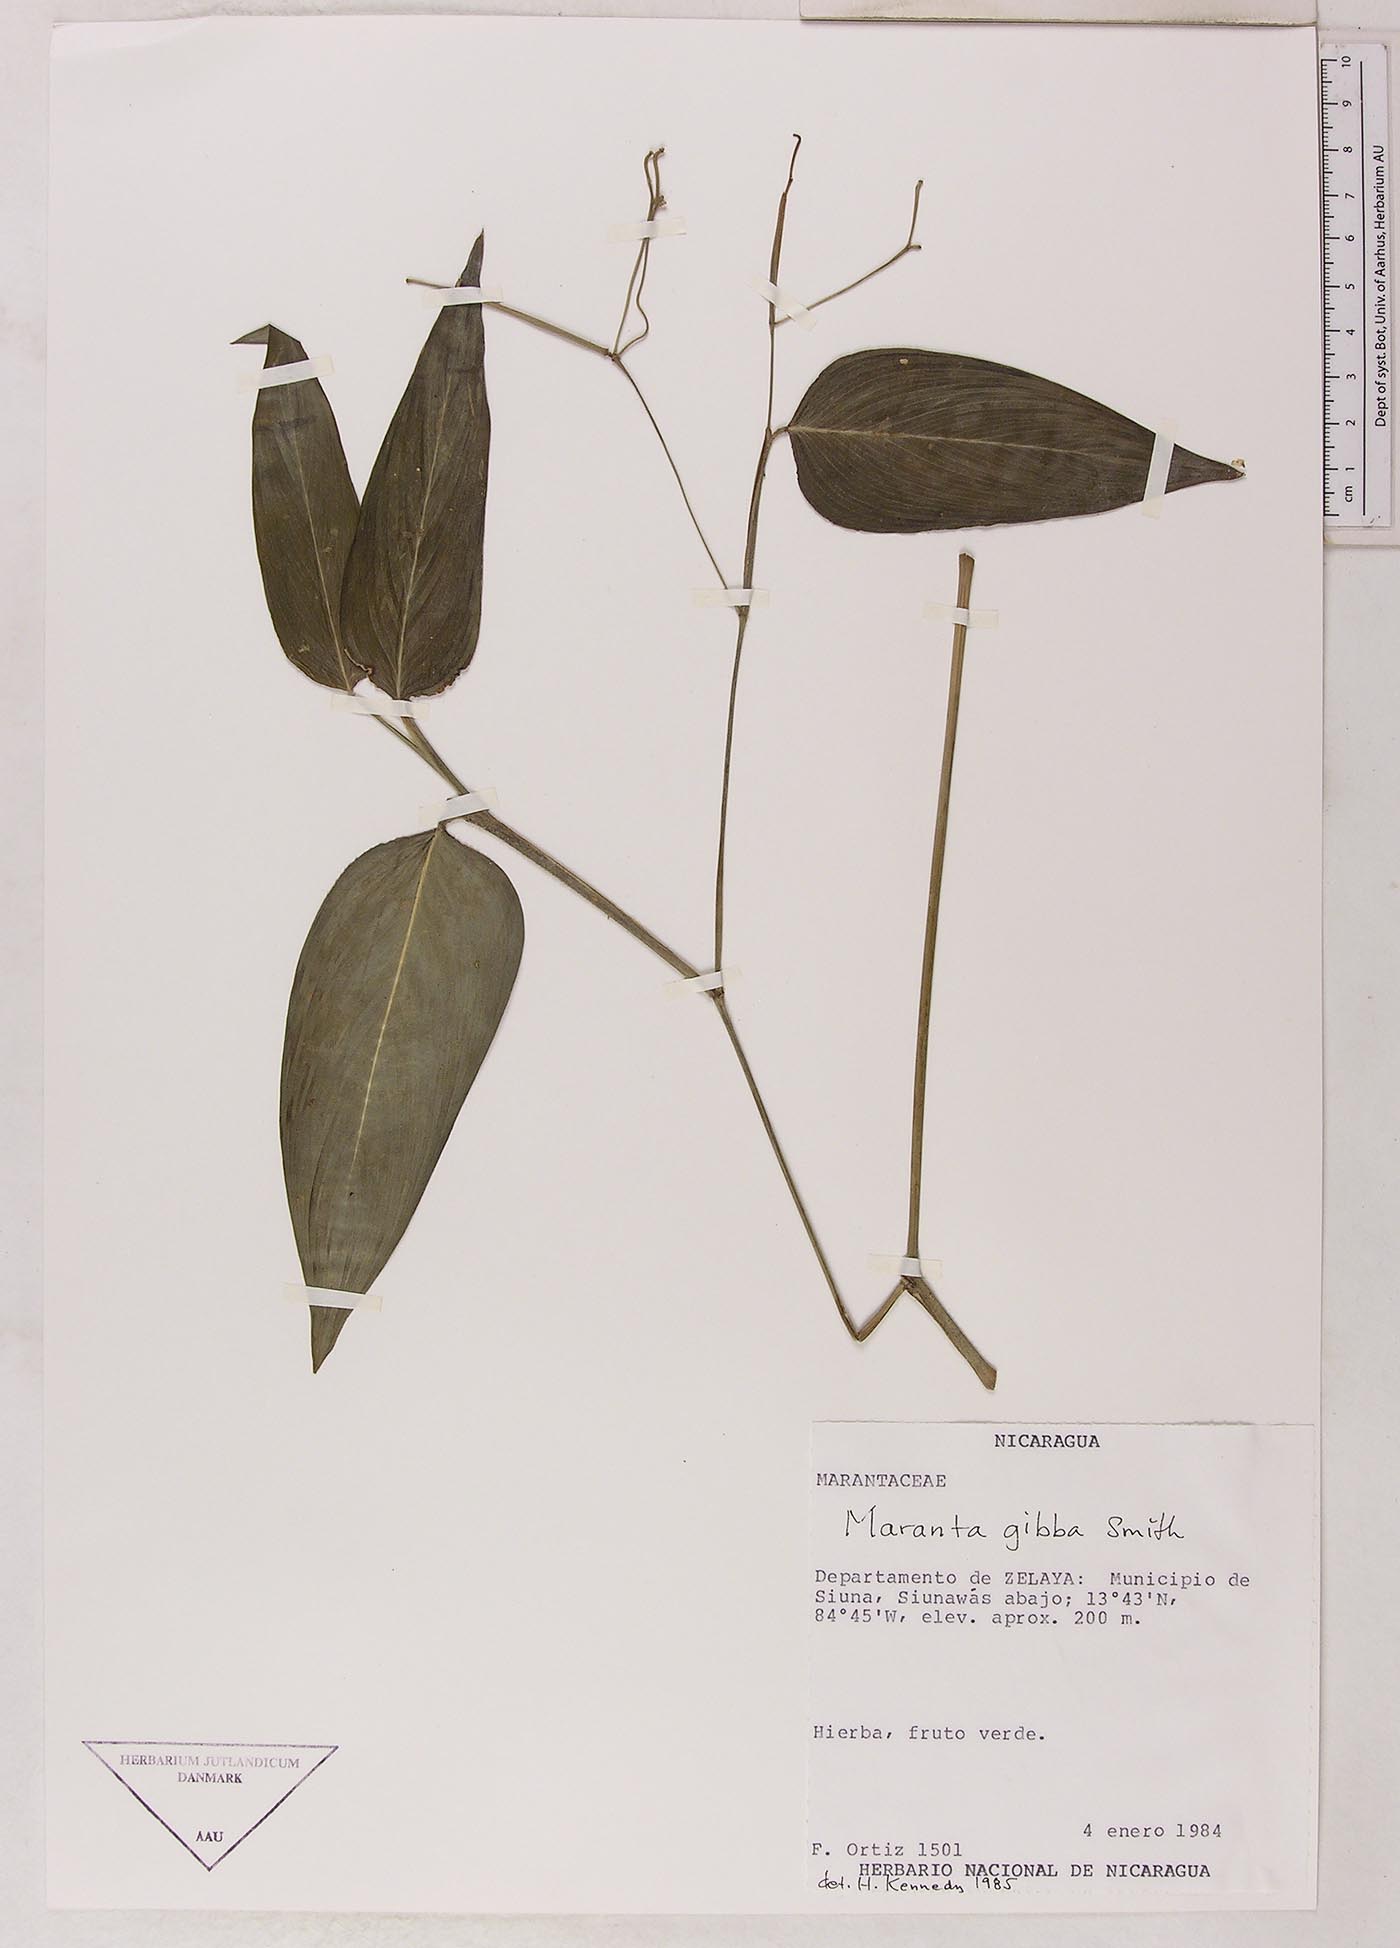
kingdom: Plantae
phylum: Tracheophyta
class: Liliopsida
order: Zingiberales
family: Marantaceae
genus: Maranta
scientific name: Maranta gibba
